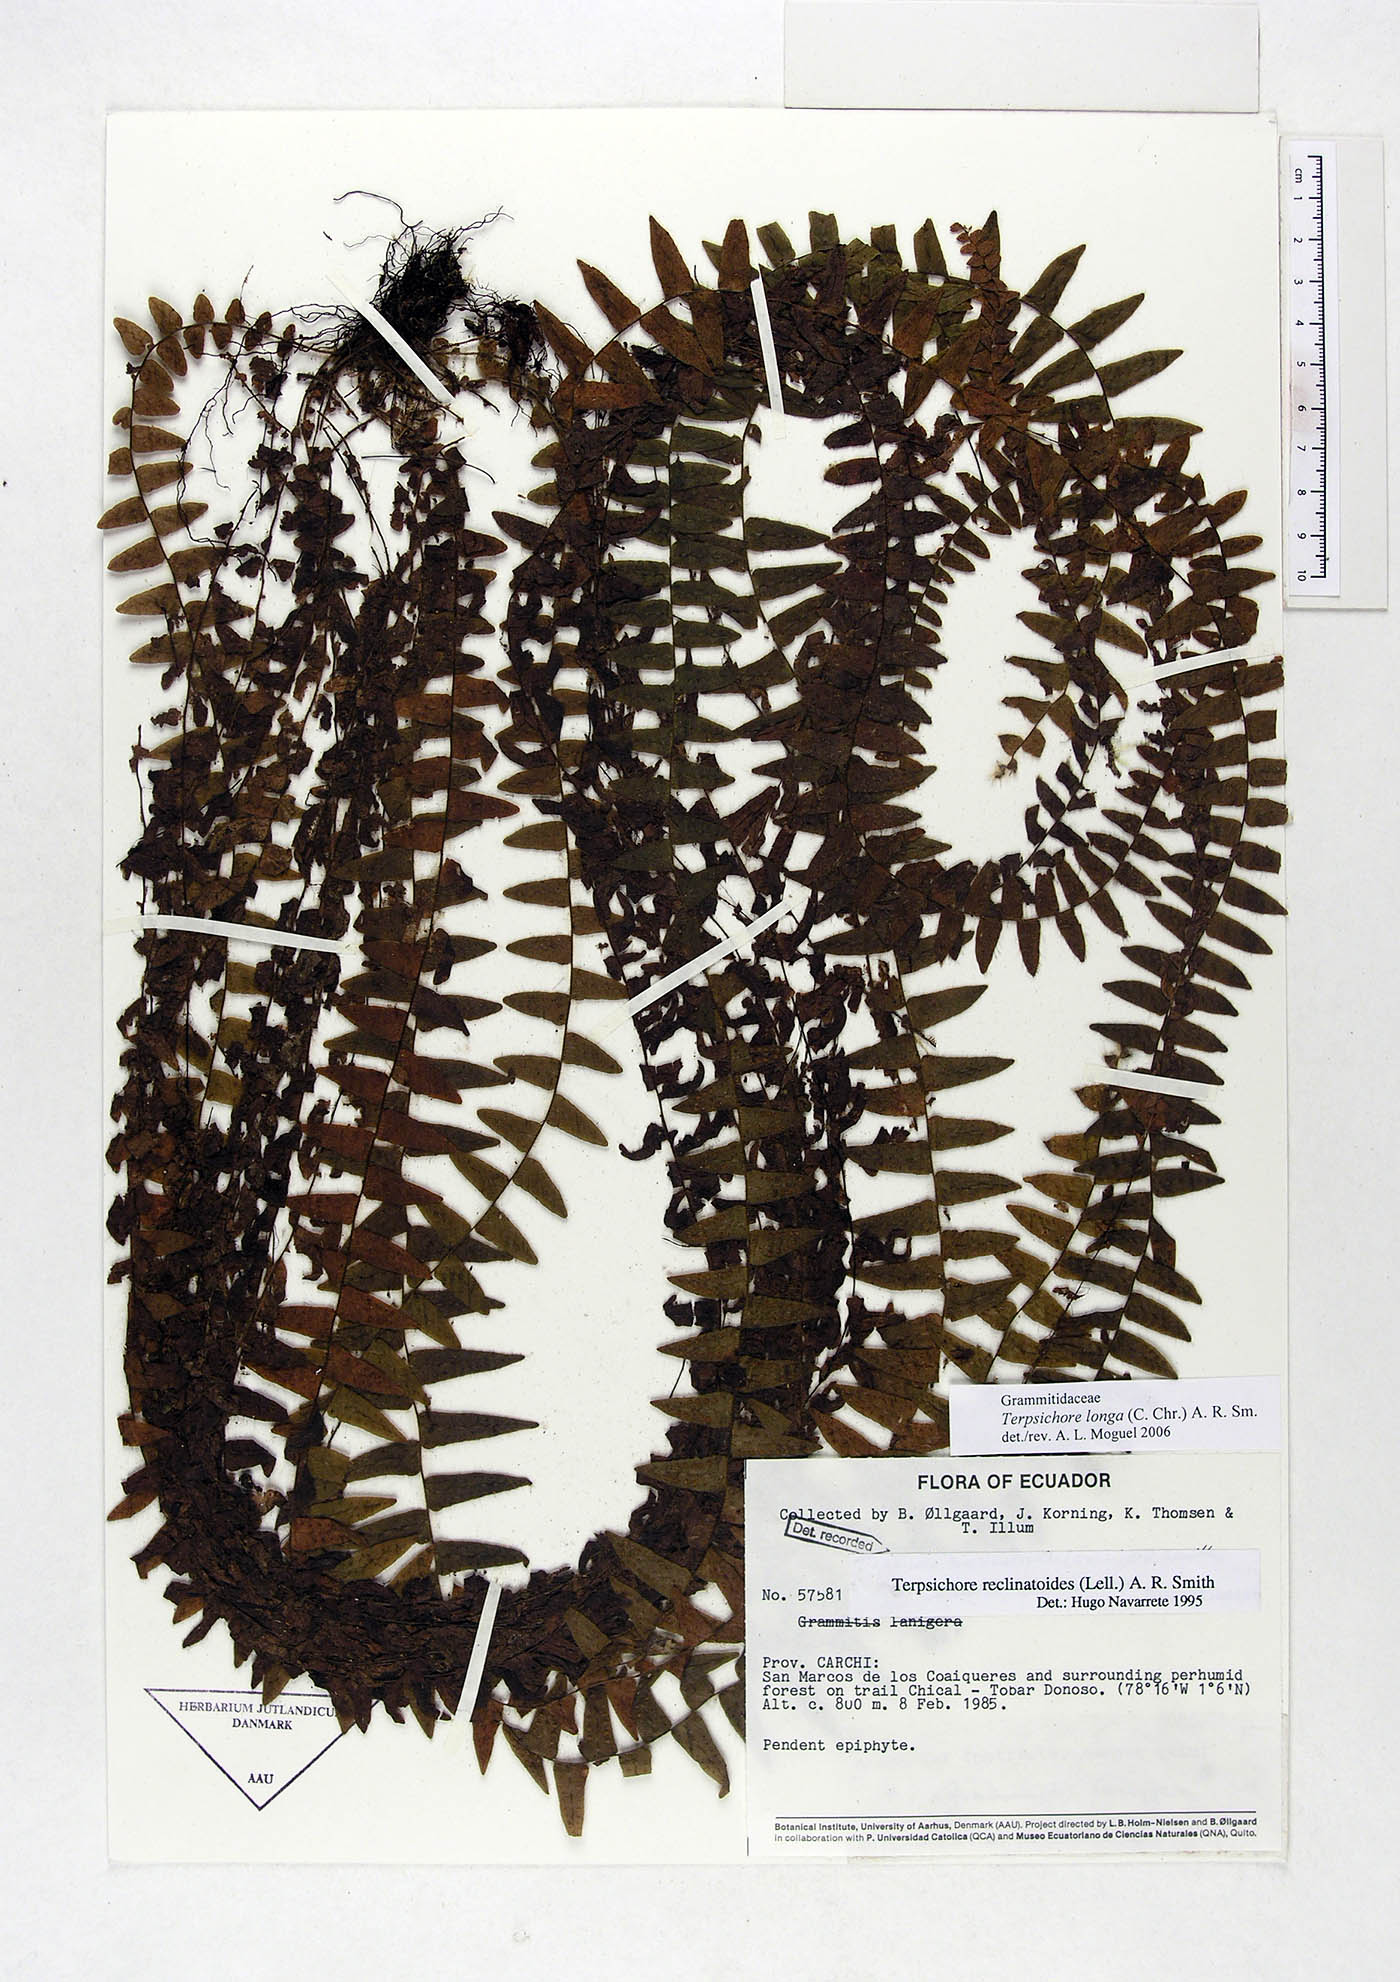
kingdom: Plantae
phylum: Tracheophyta
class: Polypodiopsida
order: Polypodiales
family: Polypodiaceae
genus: Alansmia
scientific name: Alansmia longa
